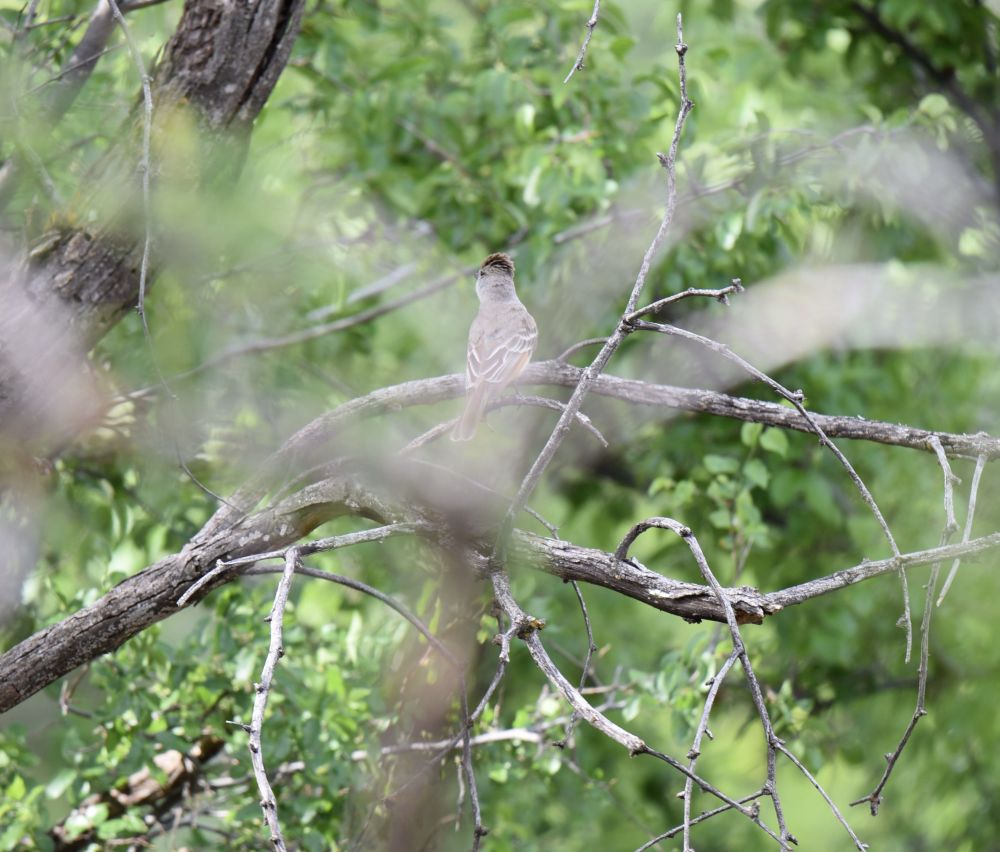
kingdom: Animalia
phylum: Chordata
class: Aves
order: Passeriformes
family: Tyrannidae
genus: Myiarchus
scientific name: Myiarchus tyrannulus
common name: Brown-crested flycatcher
